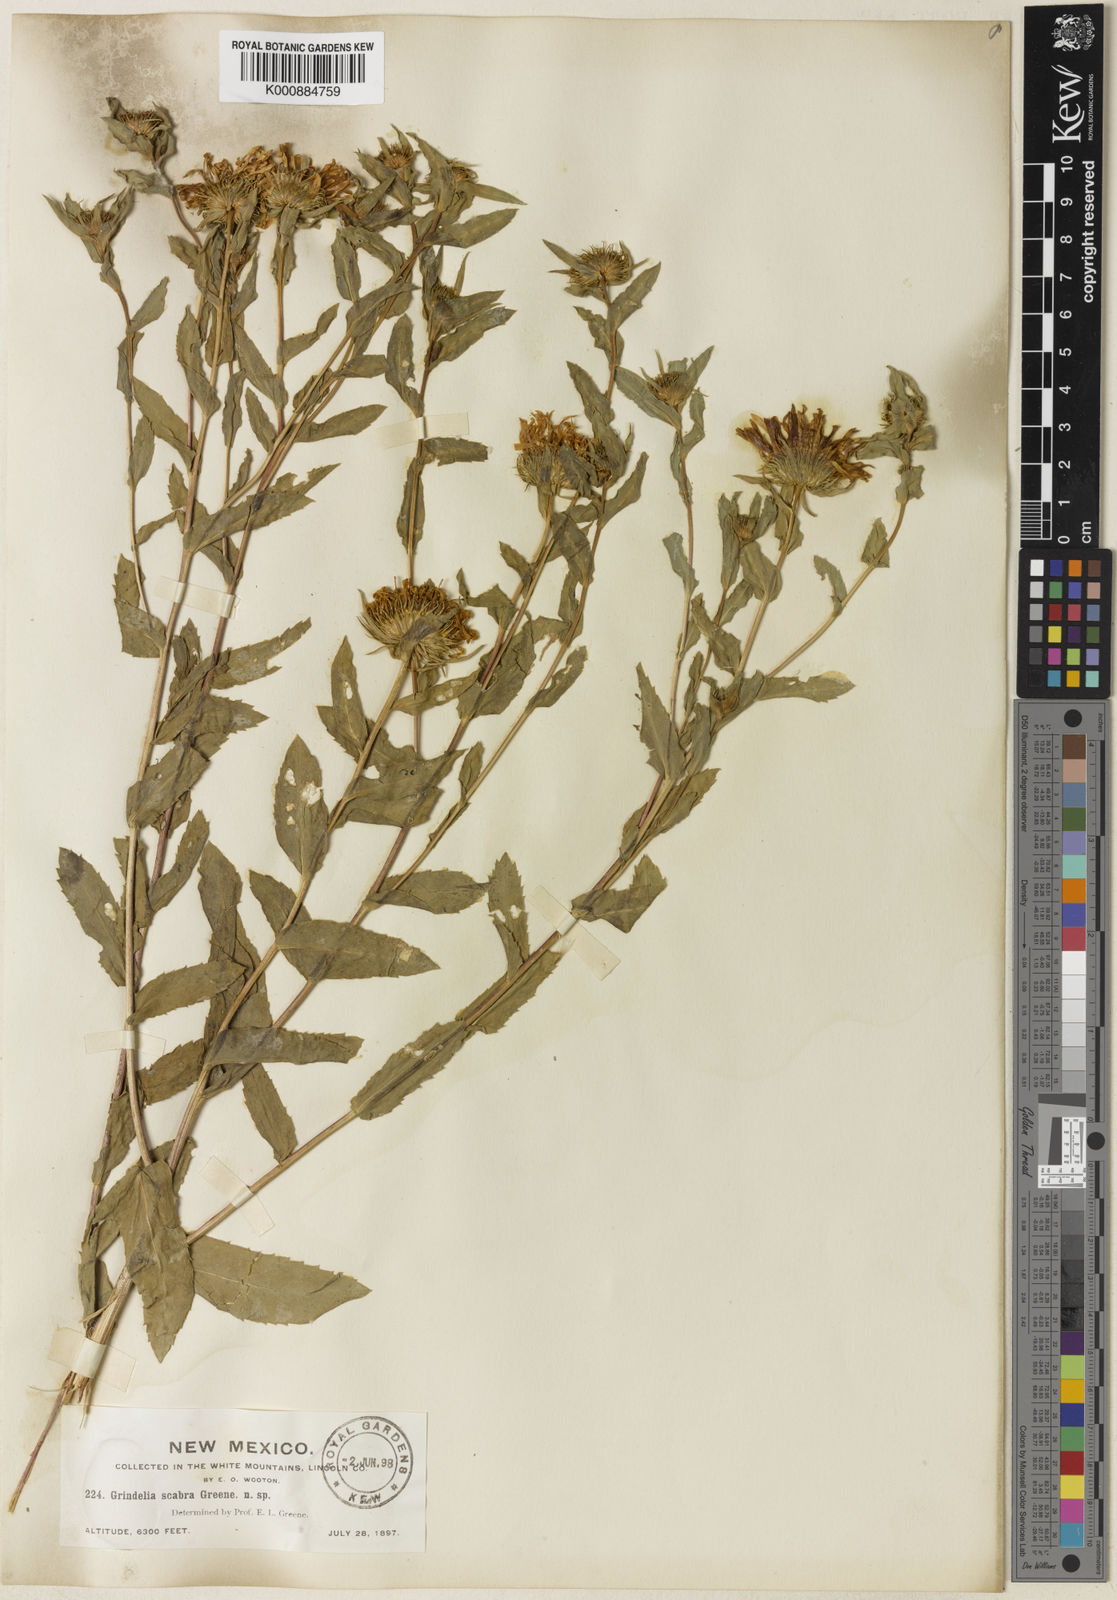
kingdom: Plantae
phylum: Tracheophyta
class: Magnoliopsida
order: Asterales
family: Asteraceae
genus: Grindelia
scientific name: Grindelia scabra
